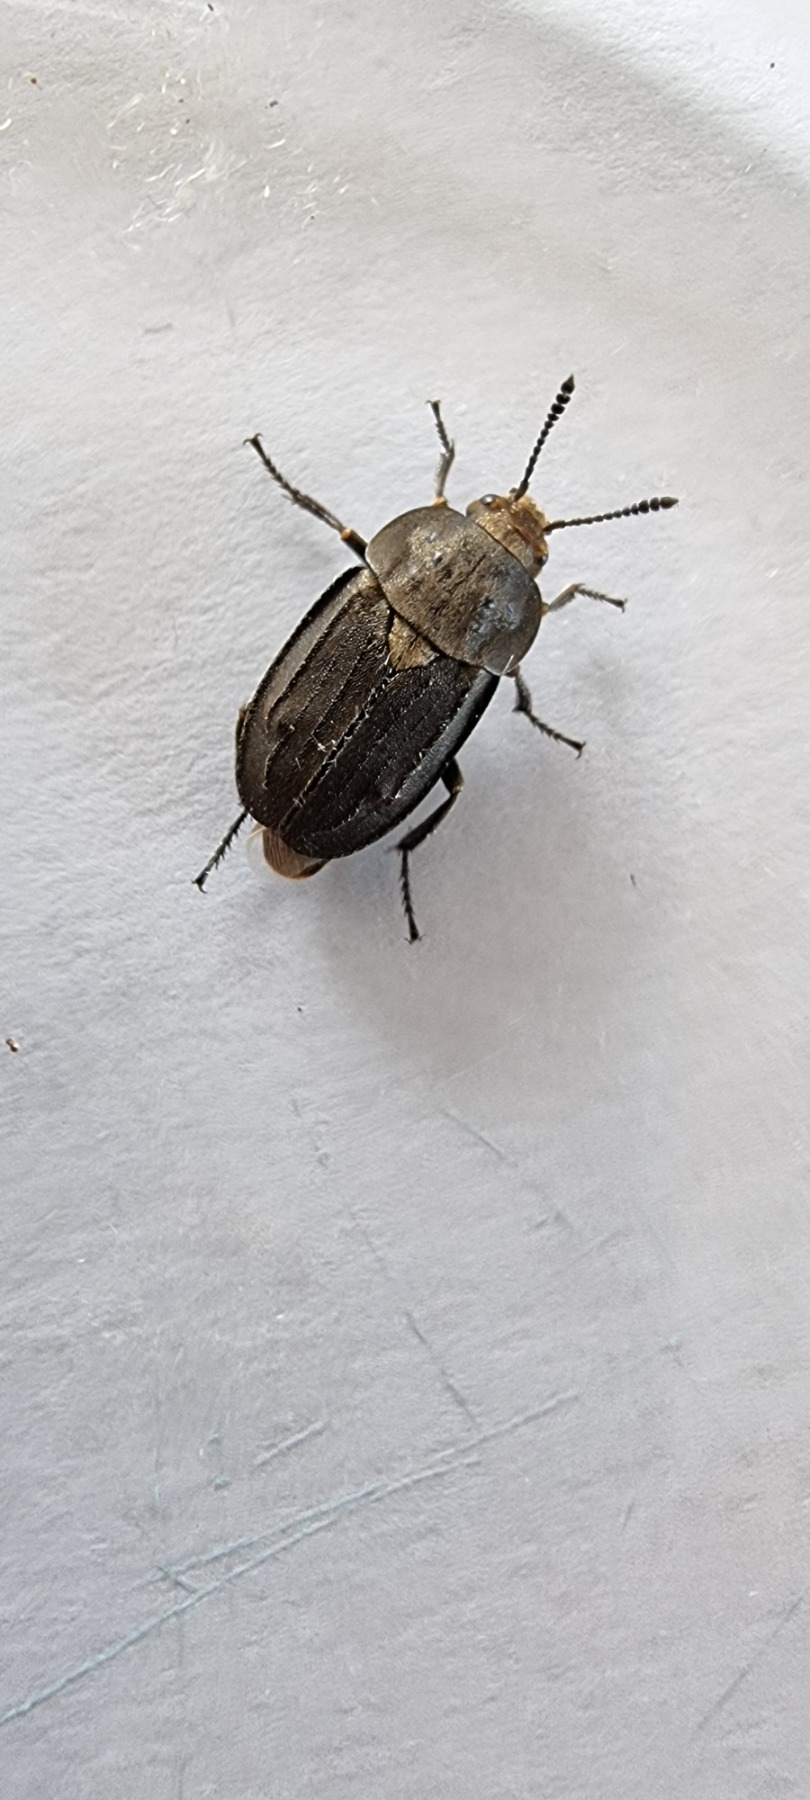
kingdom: Animalia
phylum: Arthropoda
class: Insecta
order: Coleoptera
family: Staphylinidae
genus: Aclypea
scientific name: Aclypea opaca
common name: Matsort ådselbille
